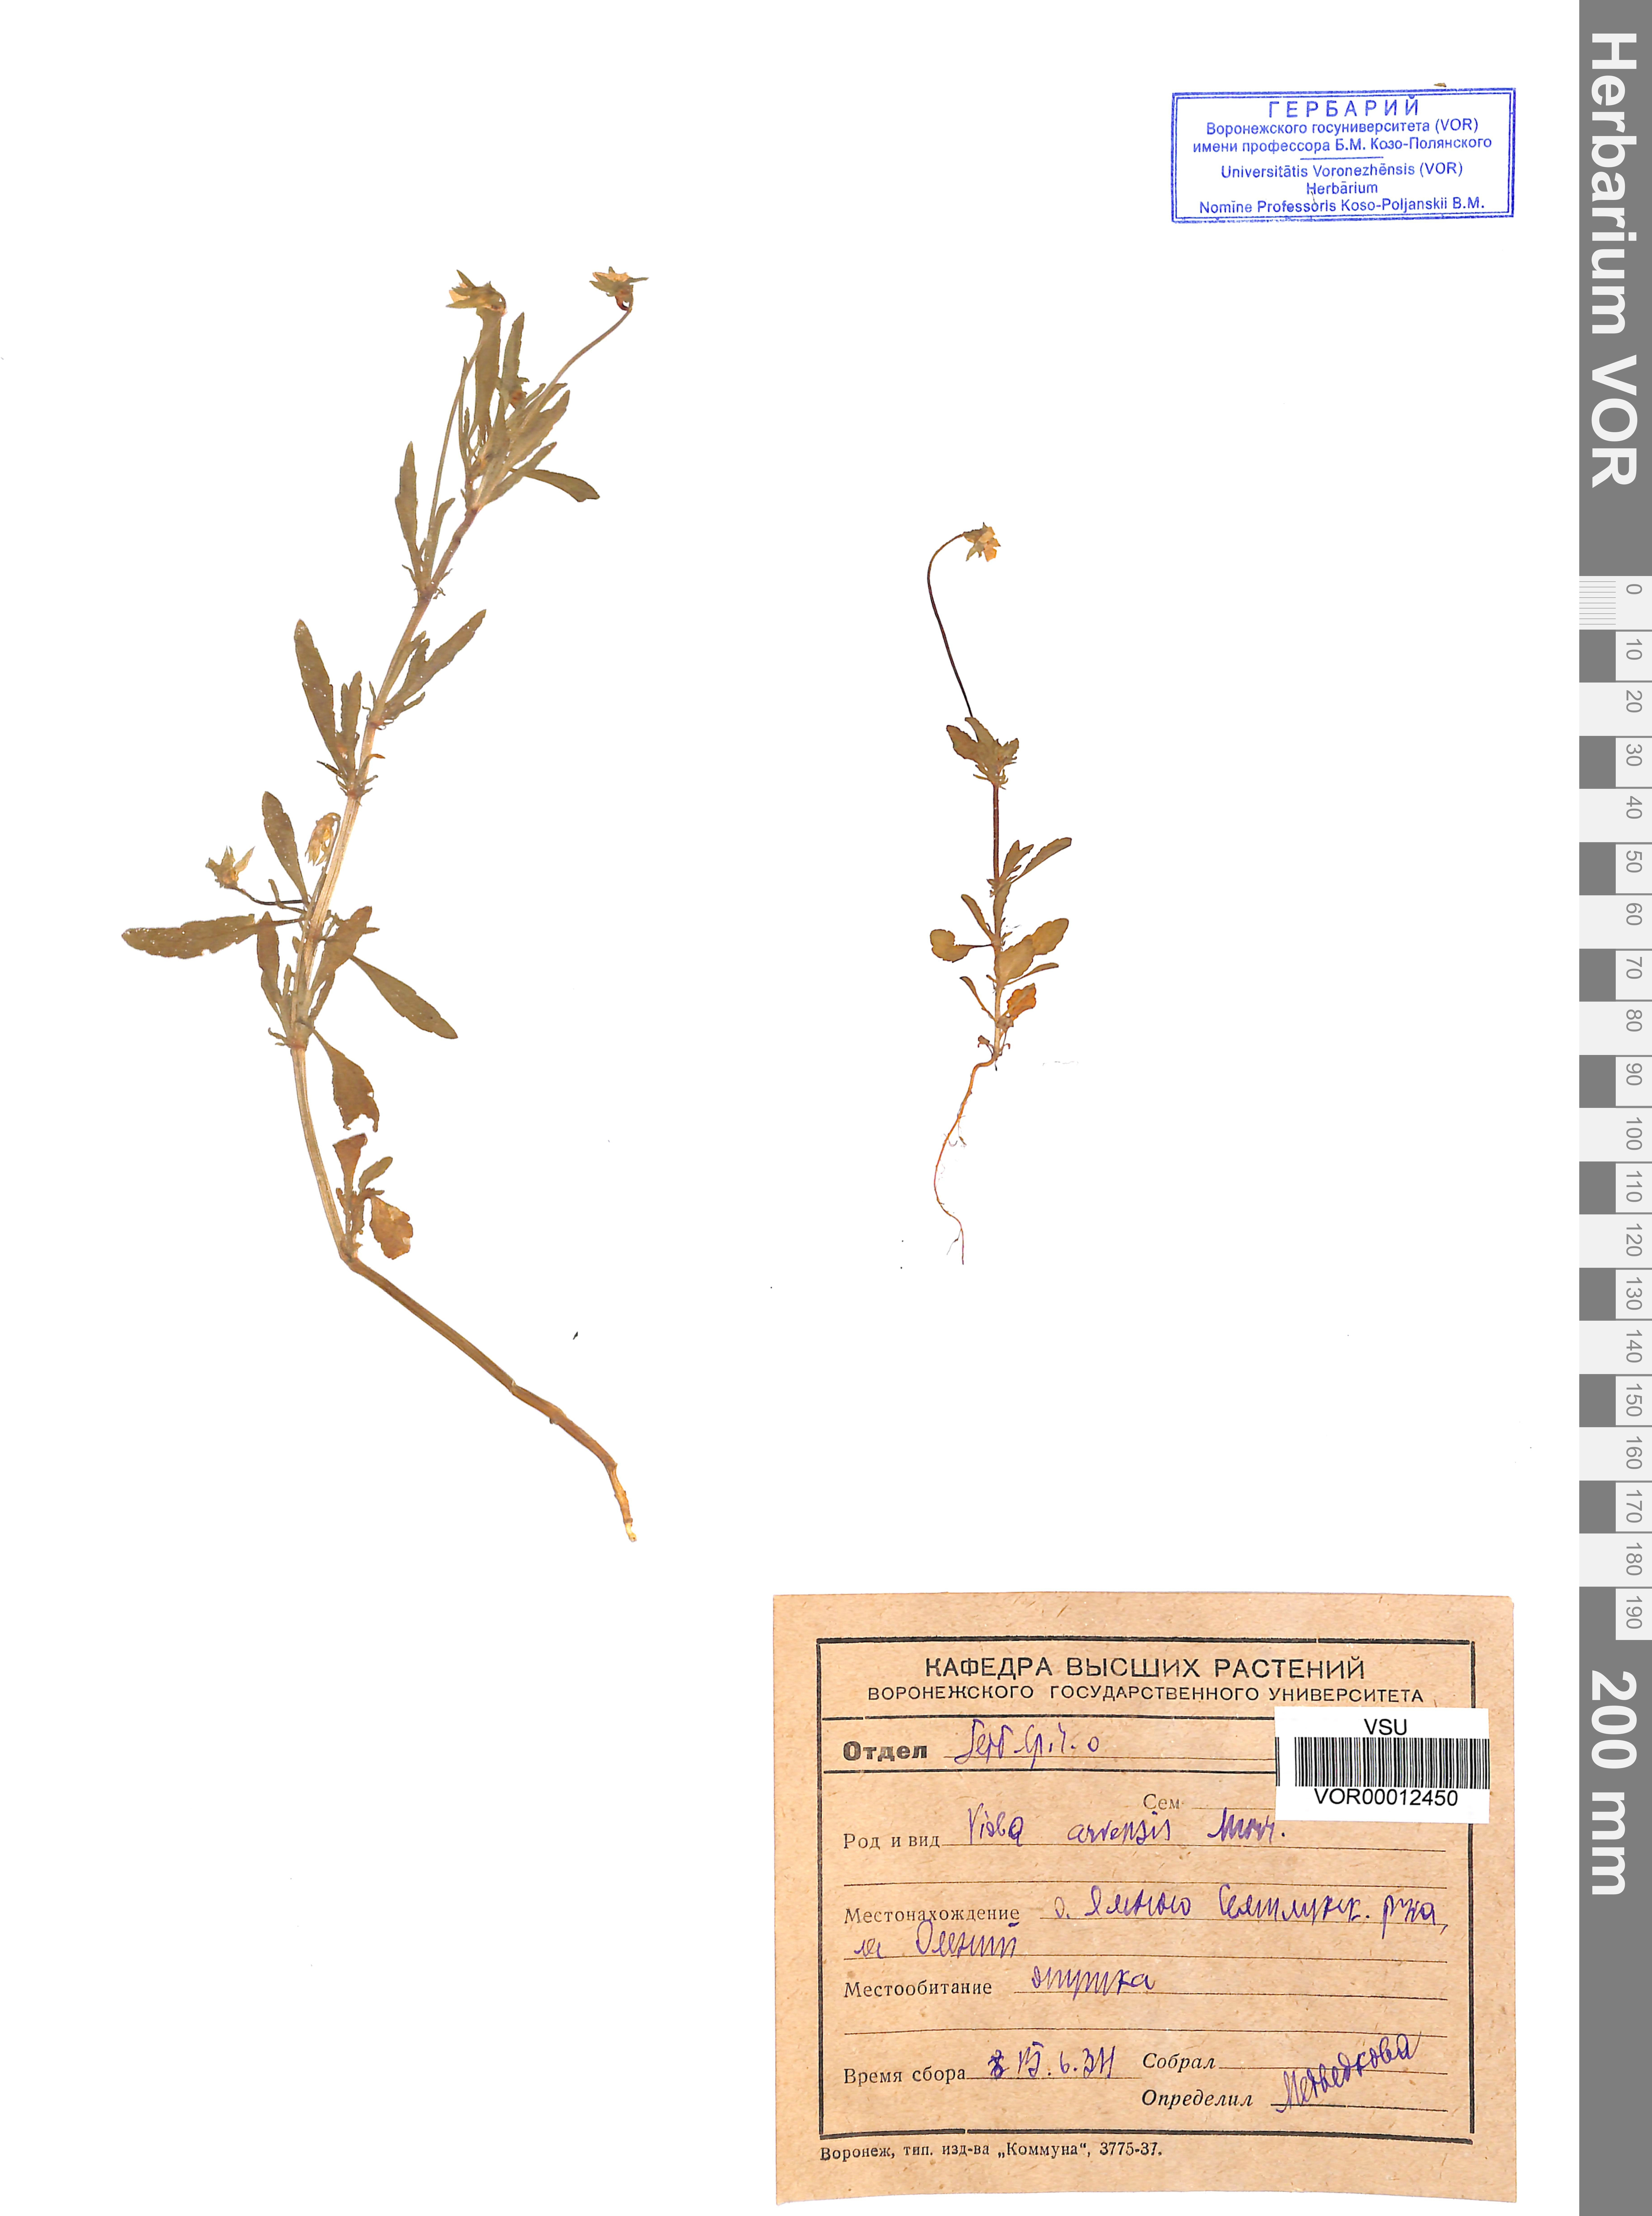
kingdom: Plantae
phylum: Tracheophyta
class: Magnoliopsida
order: Malpighiales
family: Violaceae
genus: Viola
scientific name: Viola arvensis
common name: Field pansy
